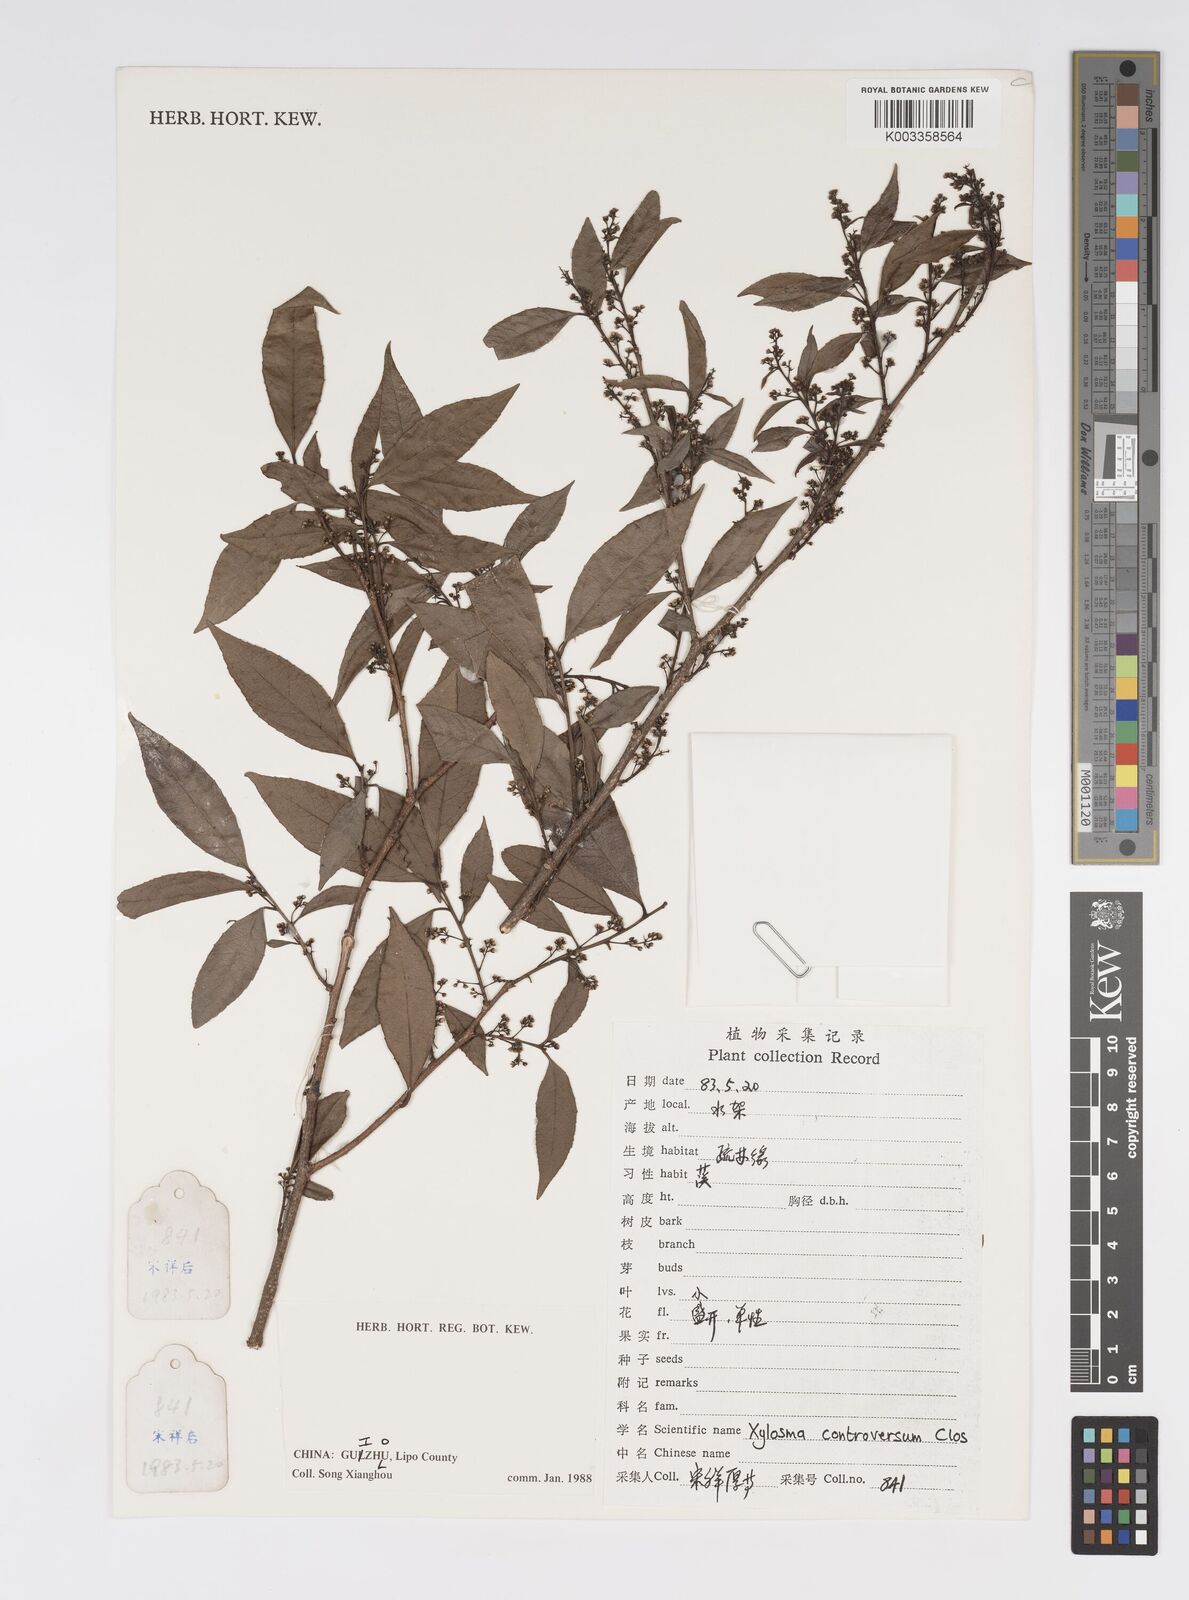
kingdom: Plantae
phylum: Tracheophyta
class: Magnoliopsida
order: Malpighiales
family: Salicaceae
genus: Xylosma
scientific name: Xylosma controversa
